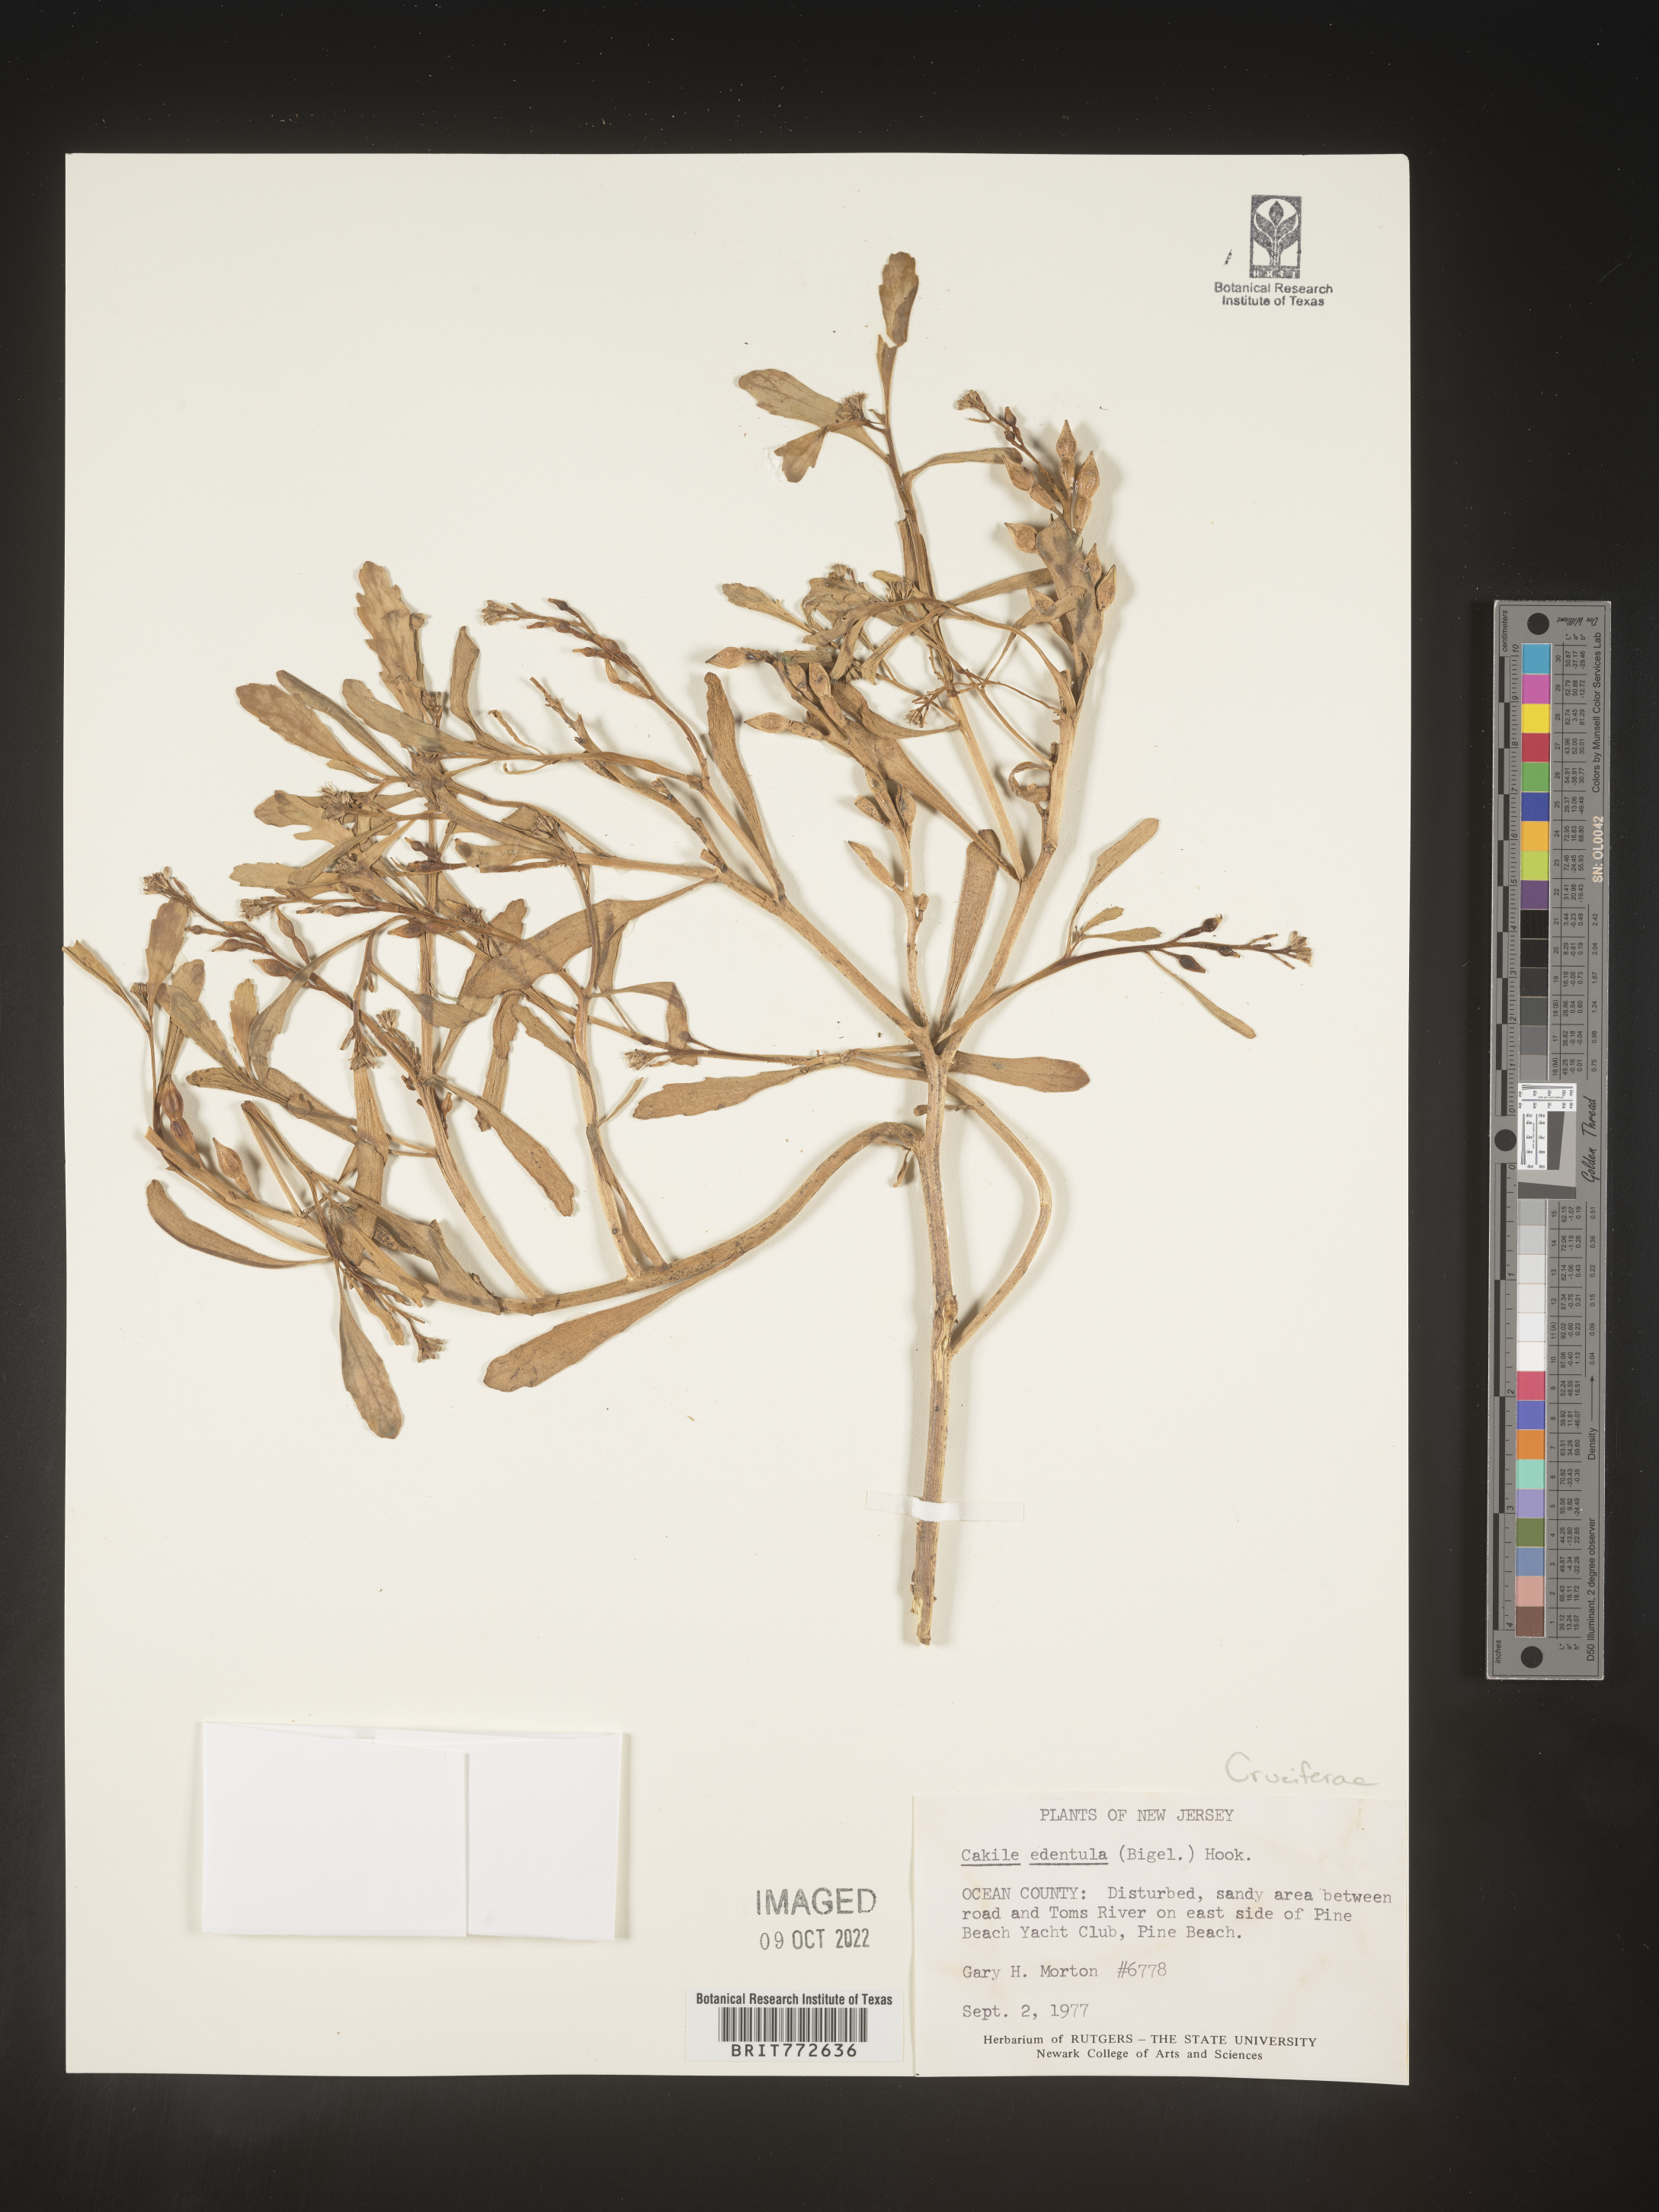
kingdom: Plantae
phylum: Tracheophyta
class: Magnoliopsida
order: Brassicales
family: Brassicaceae
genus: Cakile
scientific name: Cakile edentula
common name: American sea rocket
